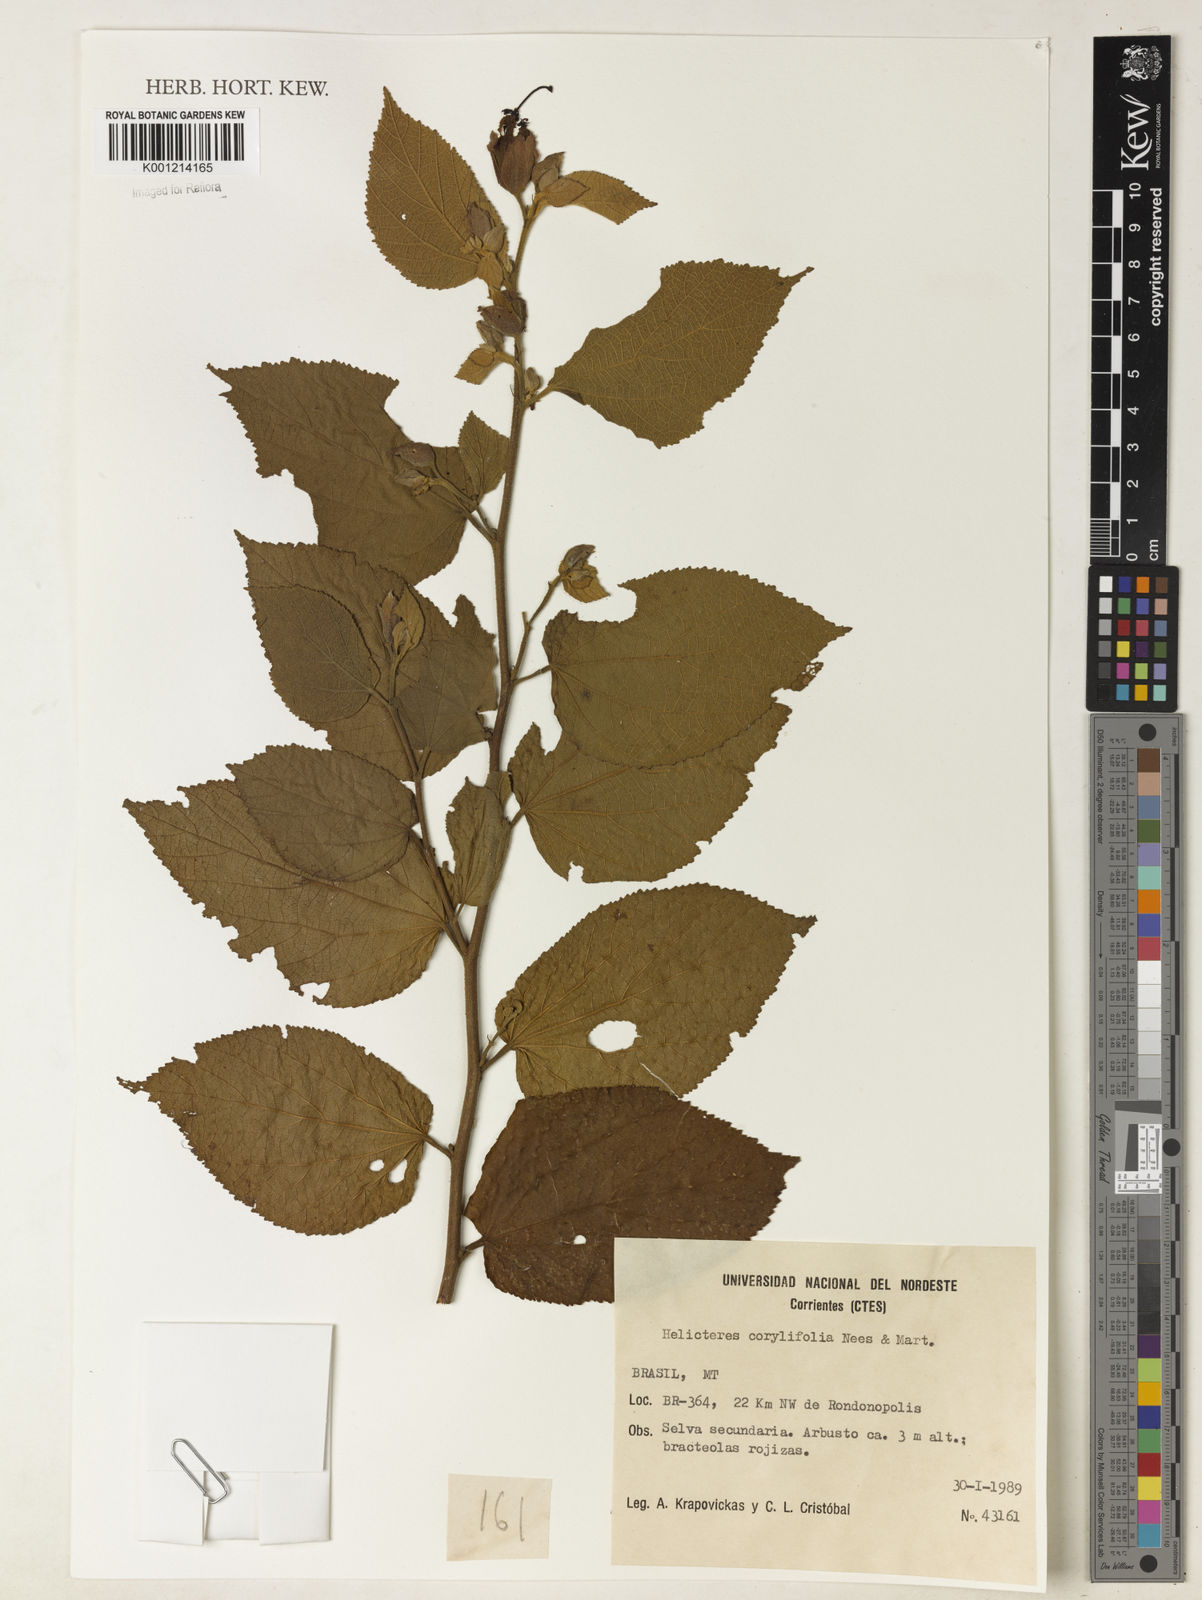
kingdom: Plantae
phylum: Tracheophyta
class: Magnoliopsida
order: Malvales
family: Malvaceae
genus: Helicteres
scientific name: Helicteres corylifolia
